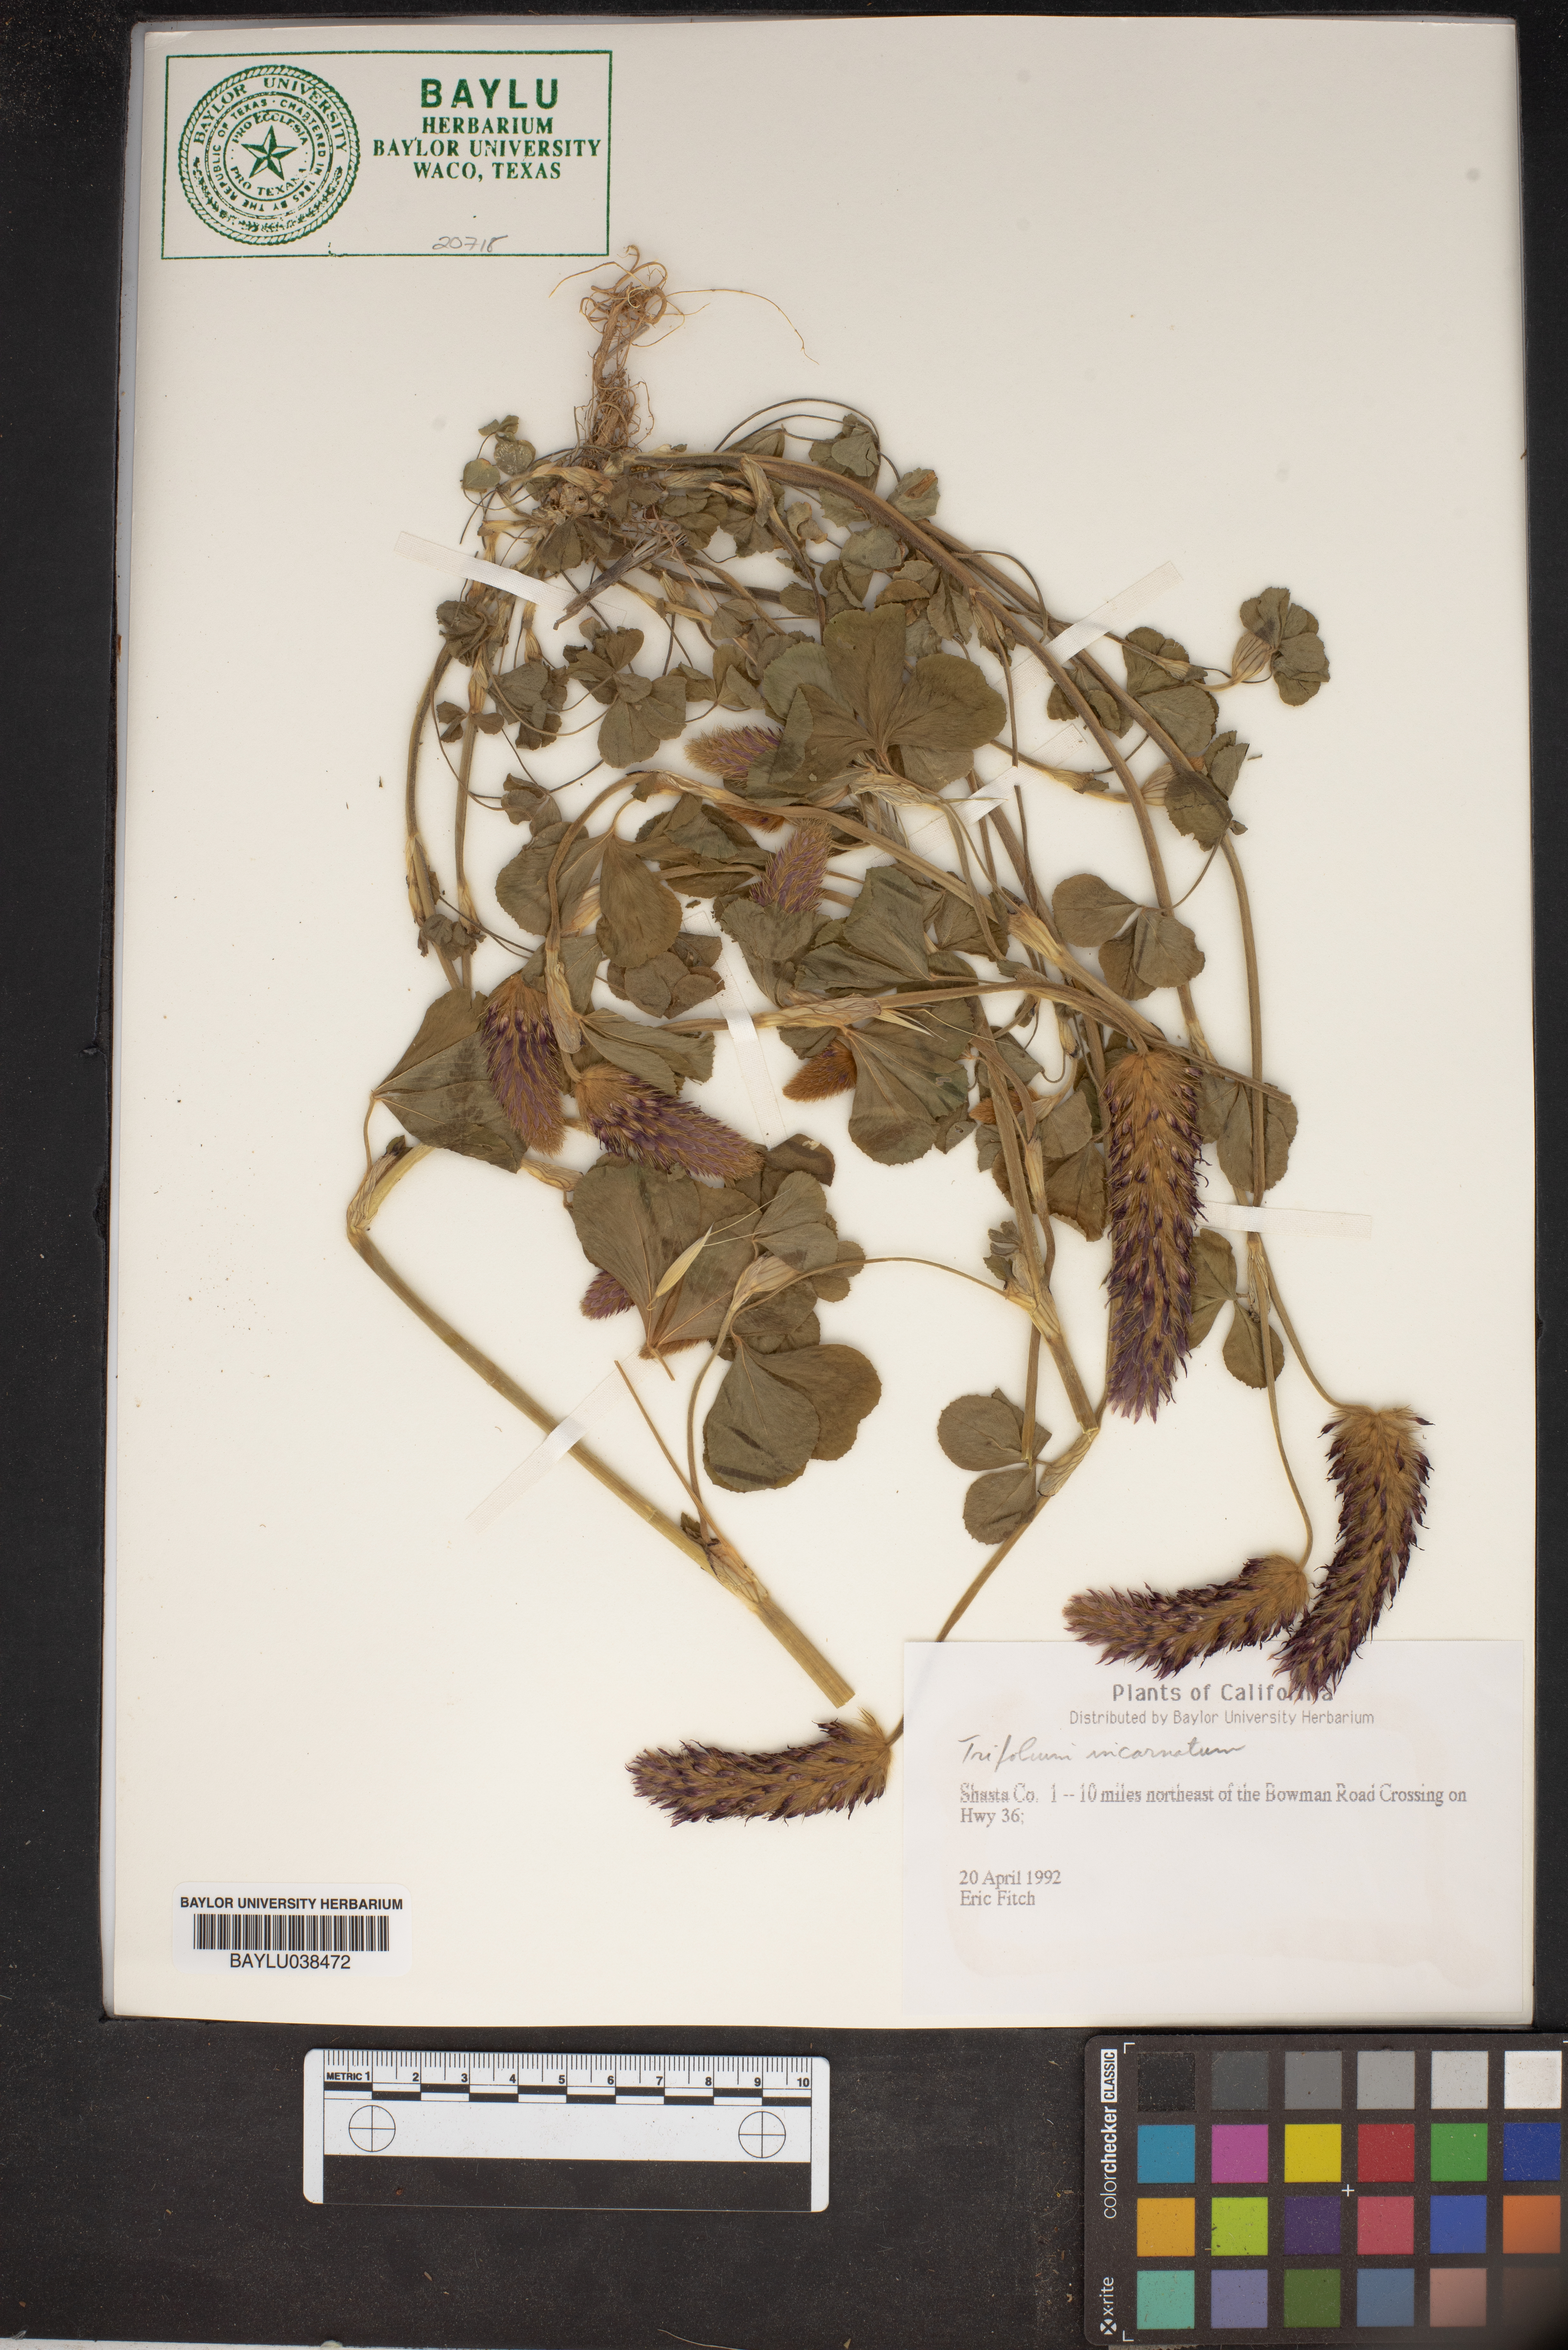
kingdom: Plantae
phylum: Tracheophyta
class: Magnoliopsida
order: Fabales
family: Fabaceae
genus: Trifolium
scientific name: Trifolium incarnatum
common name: Crimson clover
